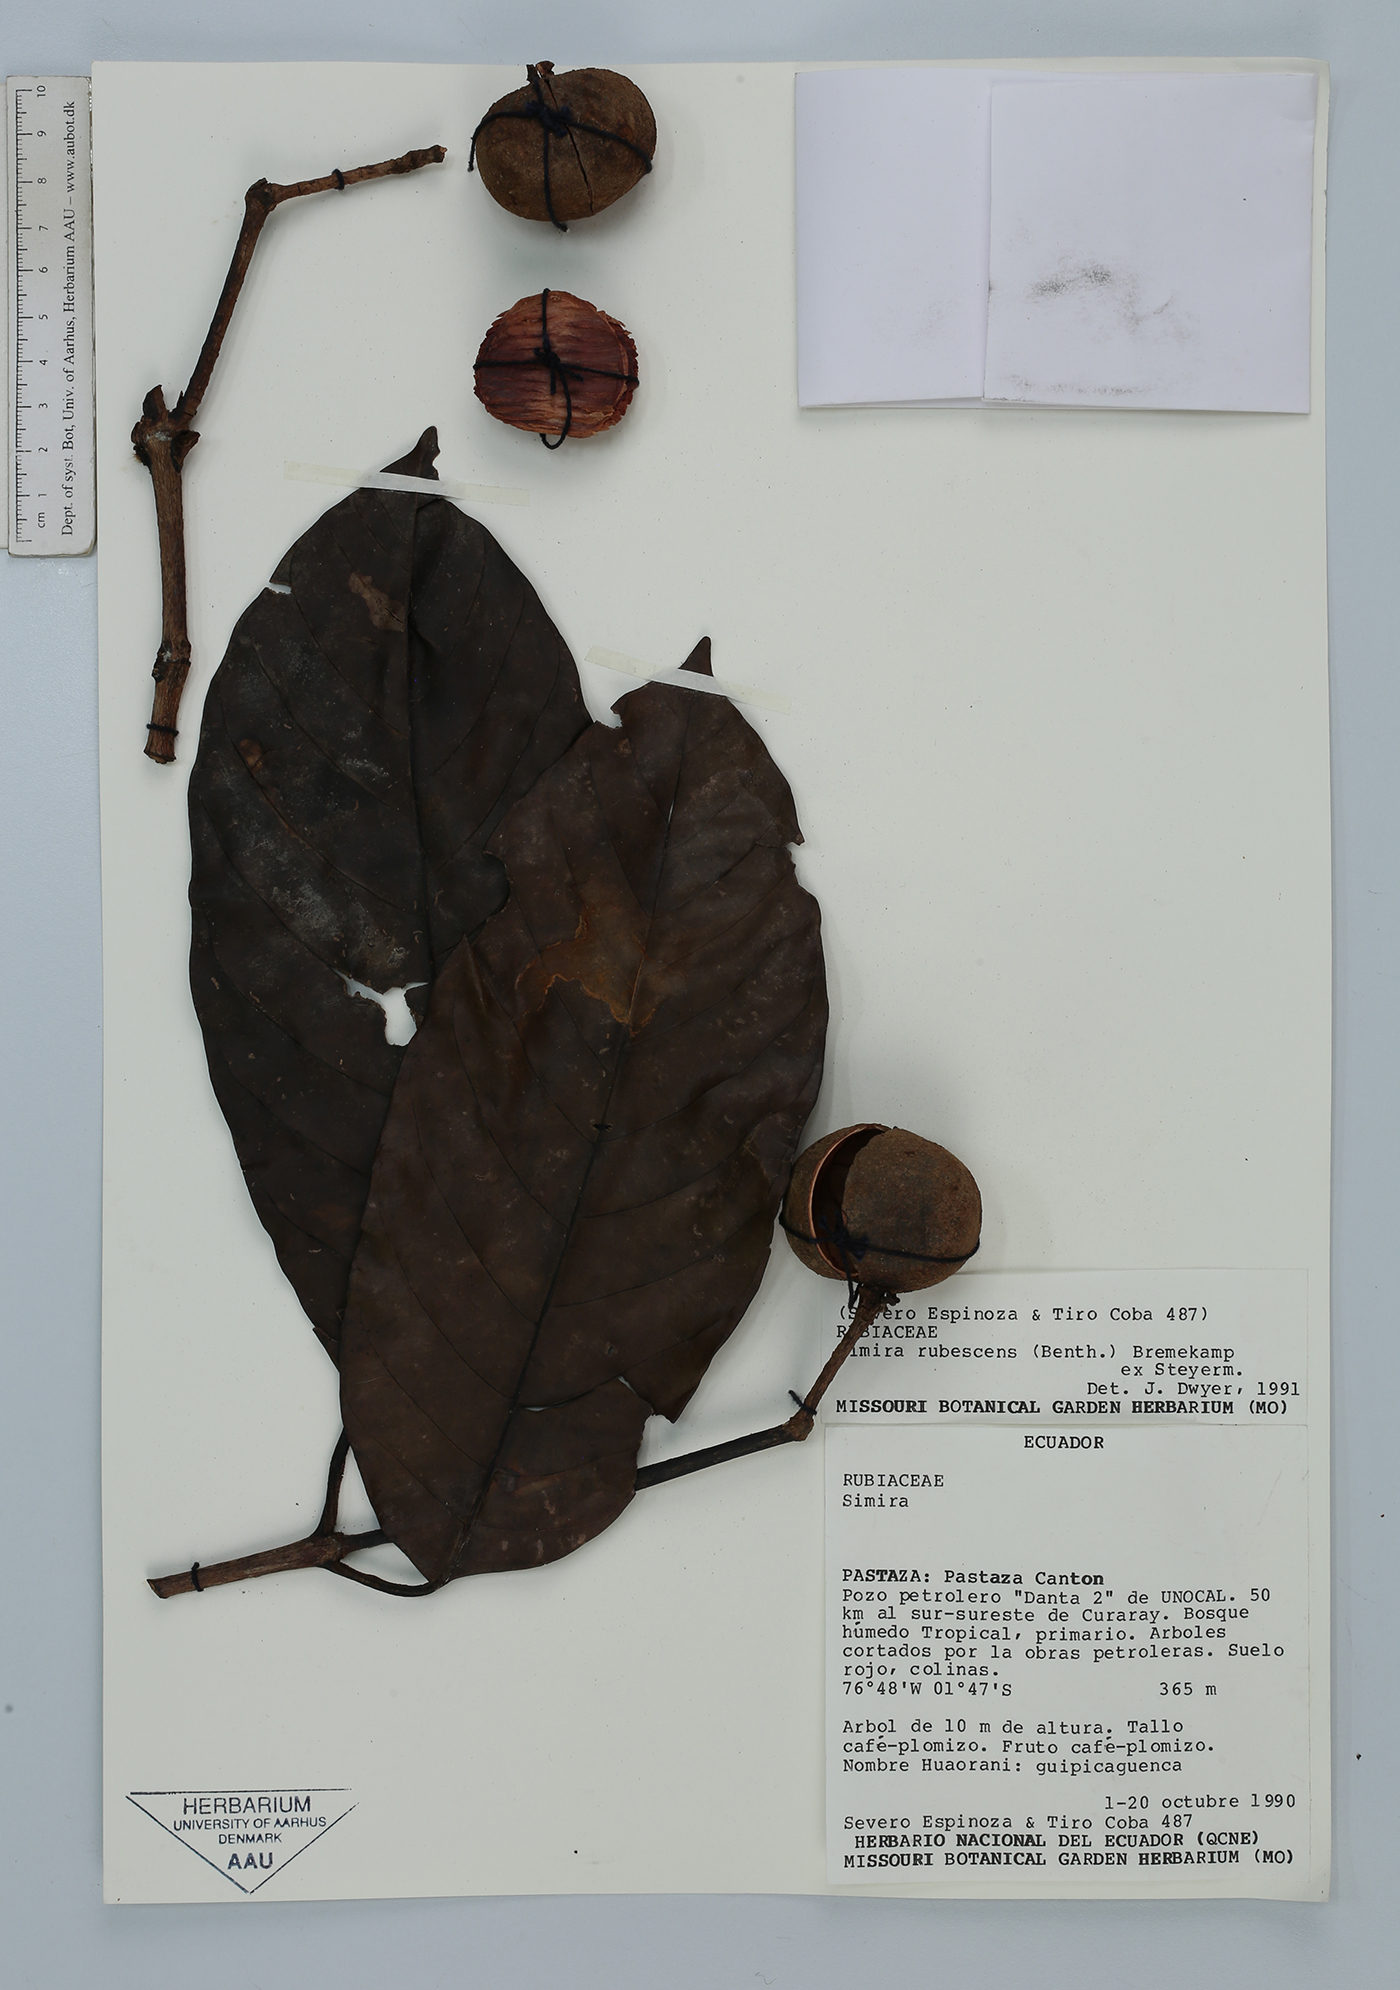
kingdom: Plantae
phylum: Tracheophyta
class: Magnoliopsida
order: Gentianales
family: Rubiaceae
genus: Simira
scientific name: Simira rubescens
